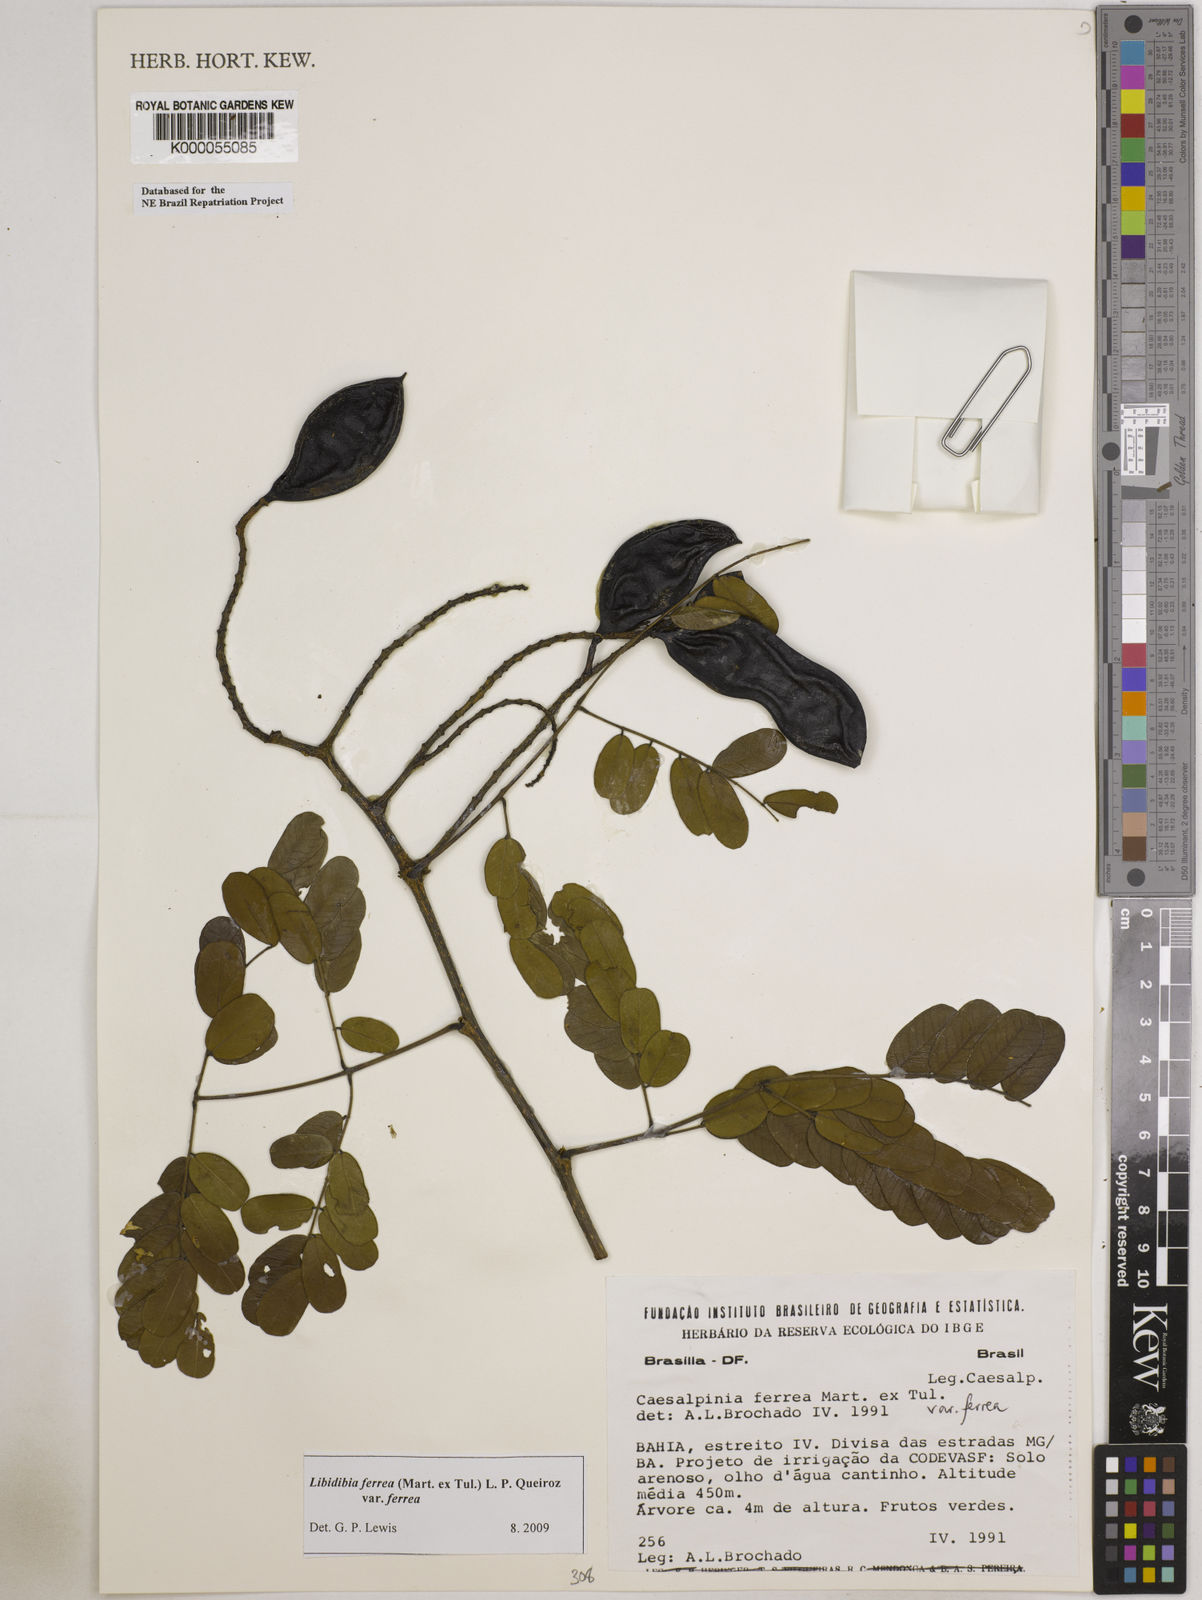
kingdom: Plantae
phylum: Tracheophyta
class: Magnoliopsida
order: Fabales
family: Fabaceae
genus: Libidibia
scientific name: Libidibia ferrea
